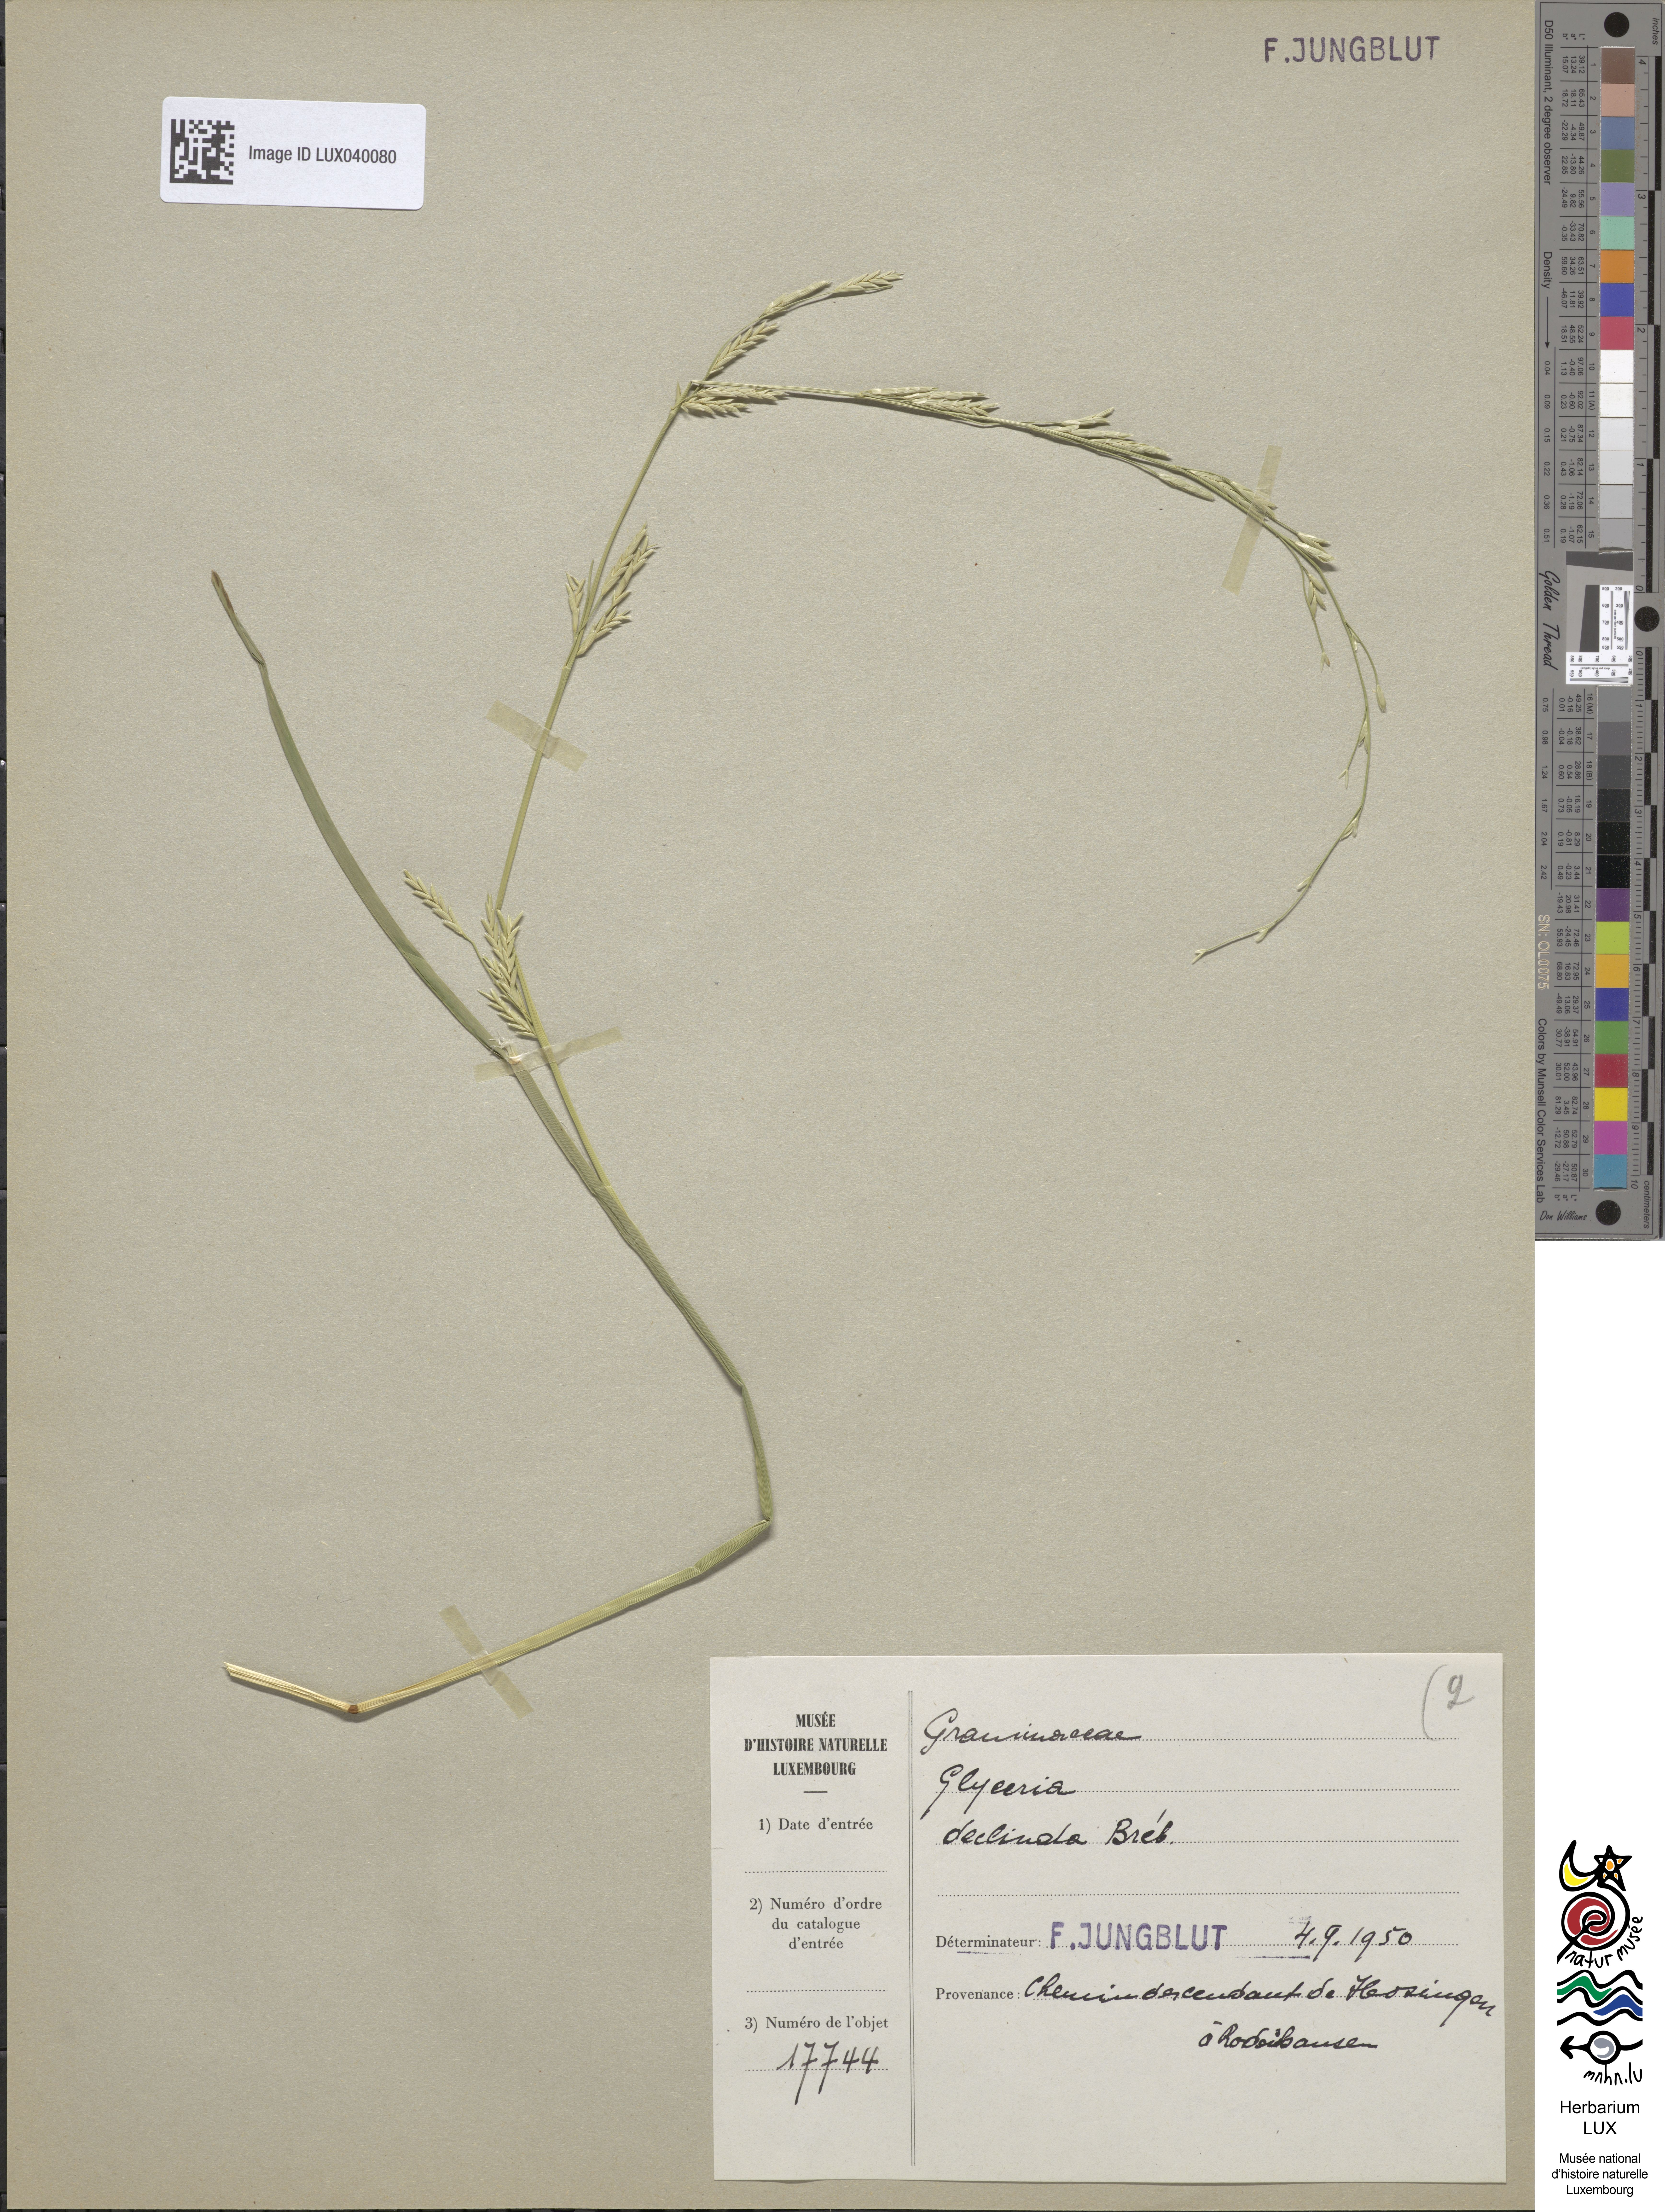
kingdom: Plantae
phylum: Tracheophyta
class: Liliopsida
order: Poales
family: Poaceae
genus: Glyceria
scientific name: Glyceria declinata
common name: Small sweet-grass
